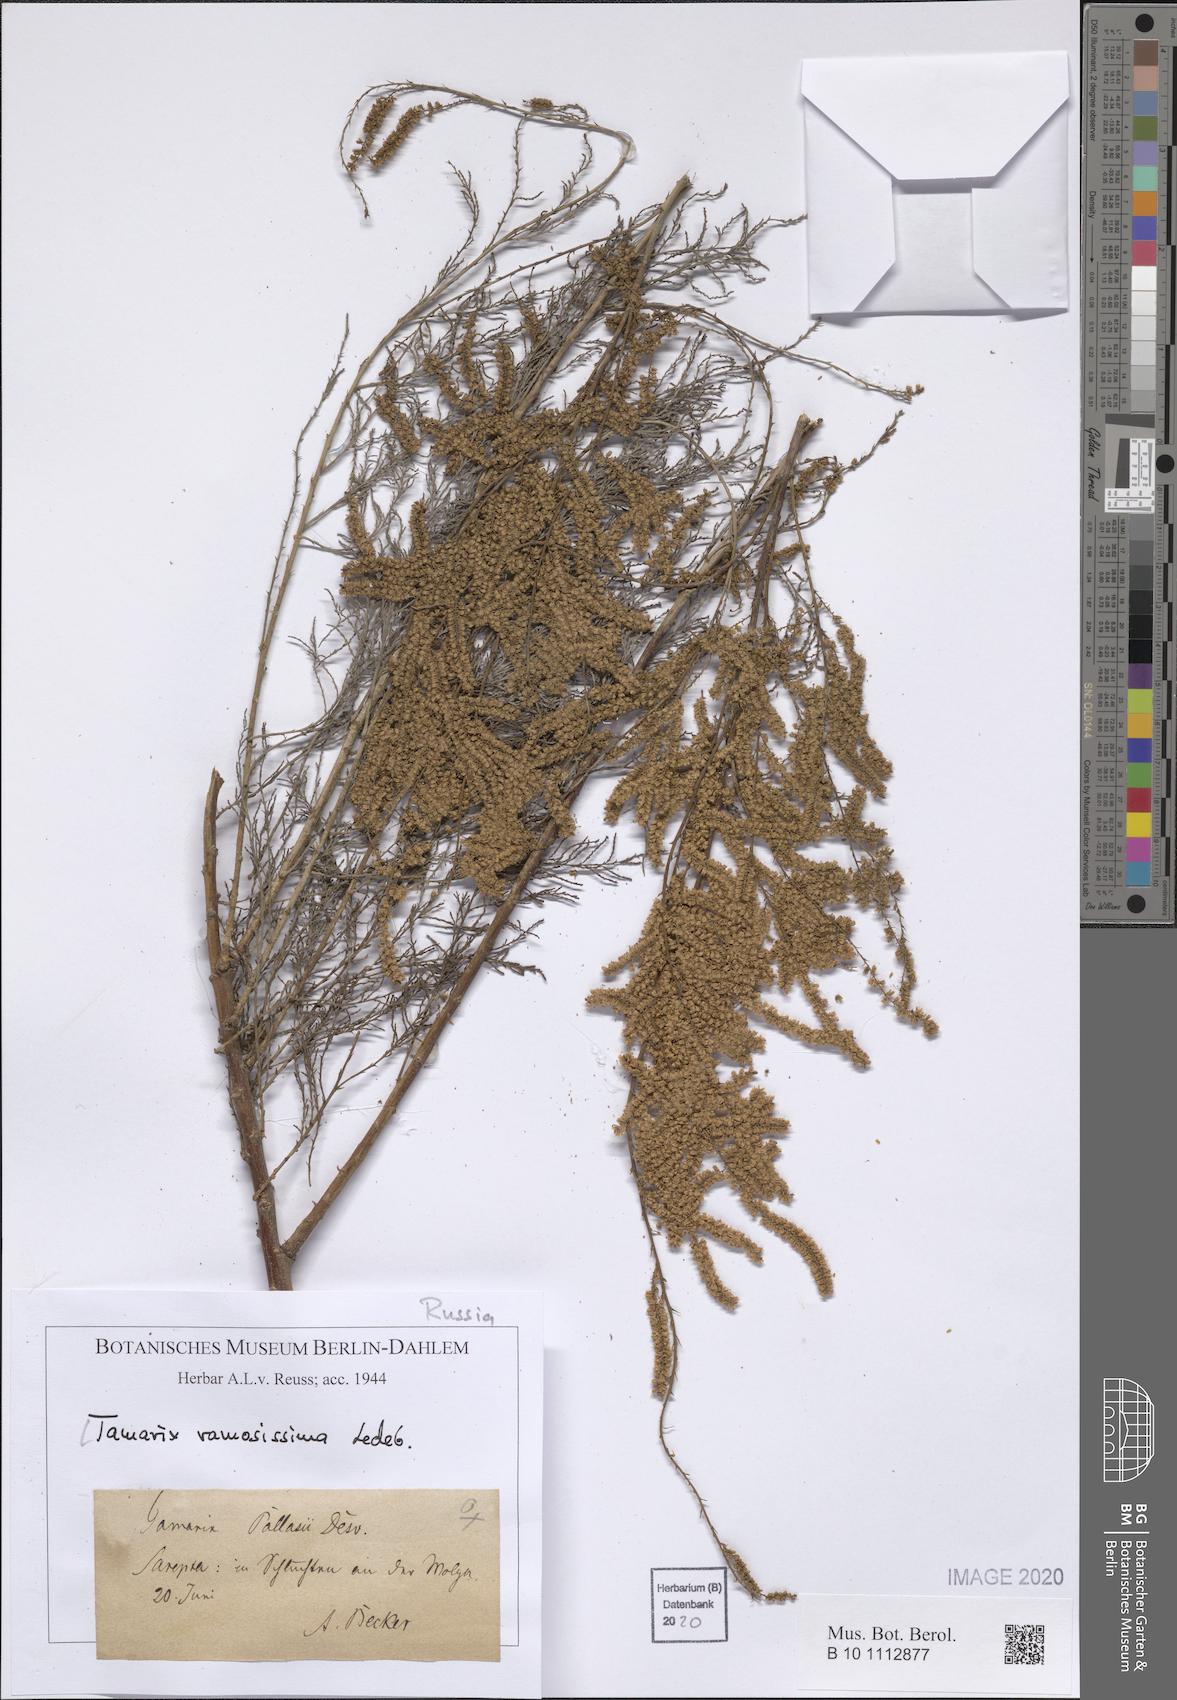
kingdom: Plantae
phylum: Tracheophyta
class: Magnoliopsida
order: Caryophyllales
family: Tamaricaceae
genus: Tamarix
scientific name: Tamarix ramosissima
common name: Pink tamarisk
